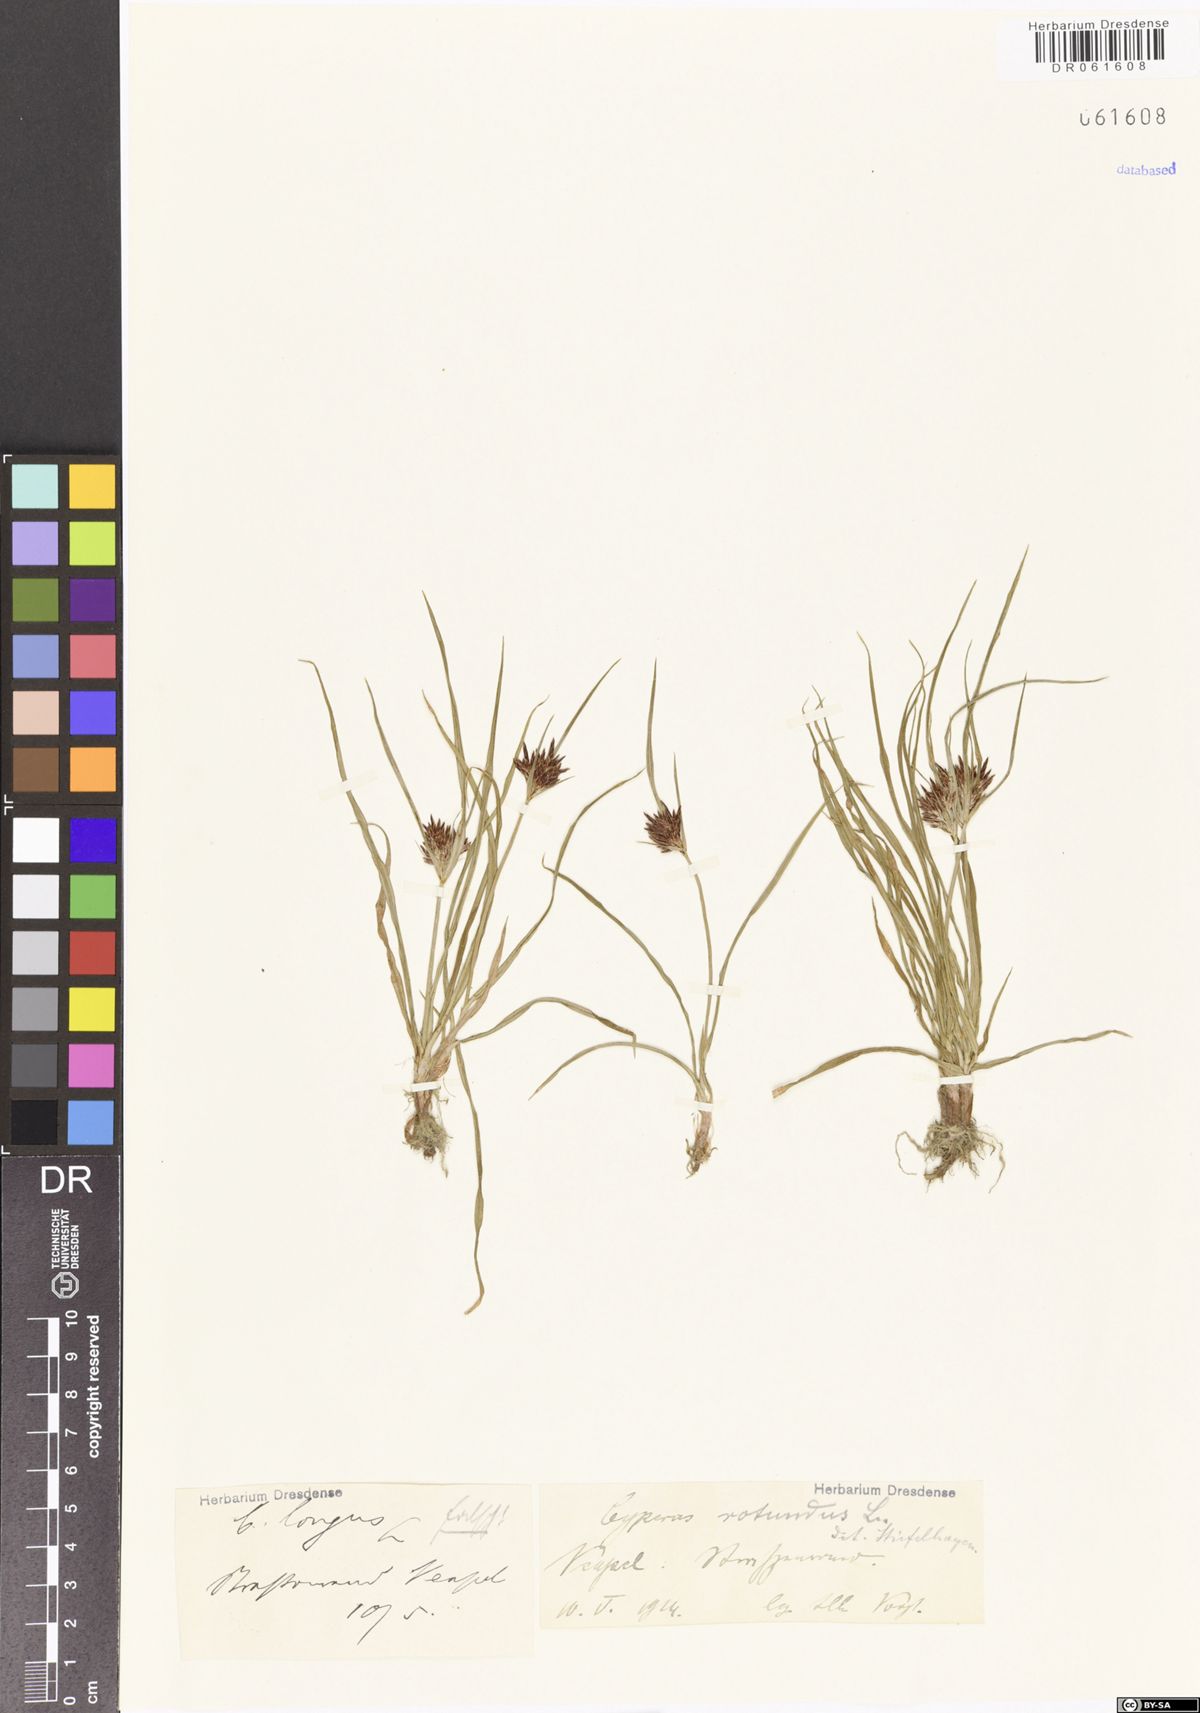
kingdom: Plantae
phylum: Tracheophyta
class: Liliopsida
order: Poales
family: Cyperaceae
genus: Cyperus
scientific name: Cyperus rotundus
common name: Nutgrass
